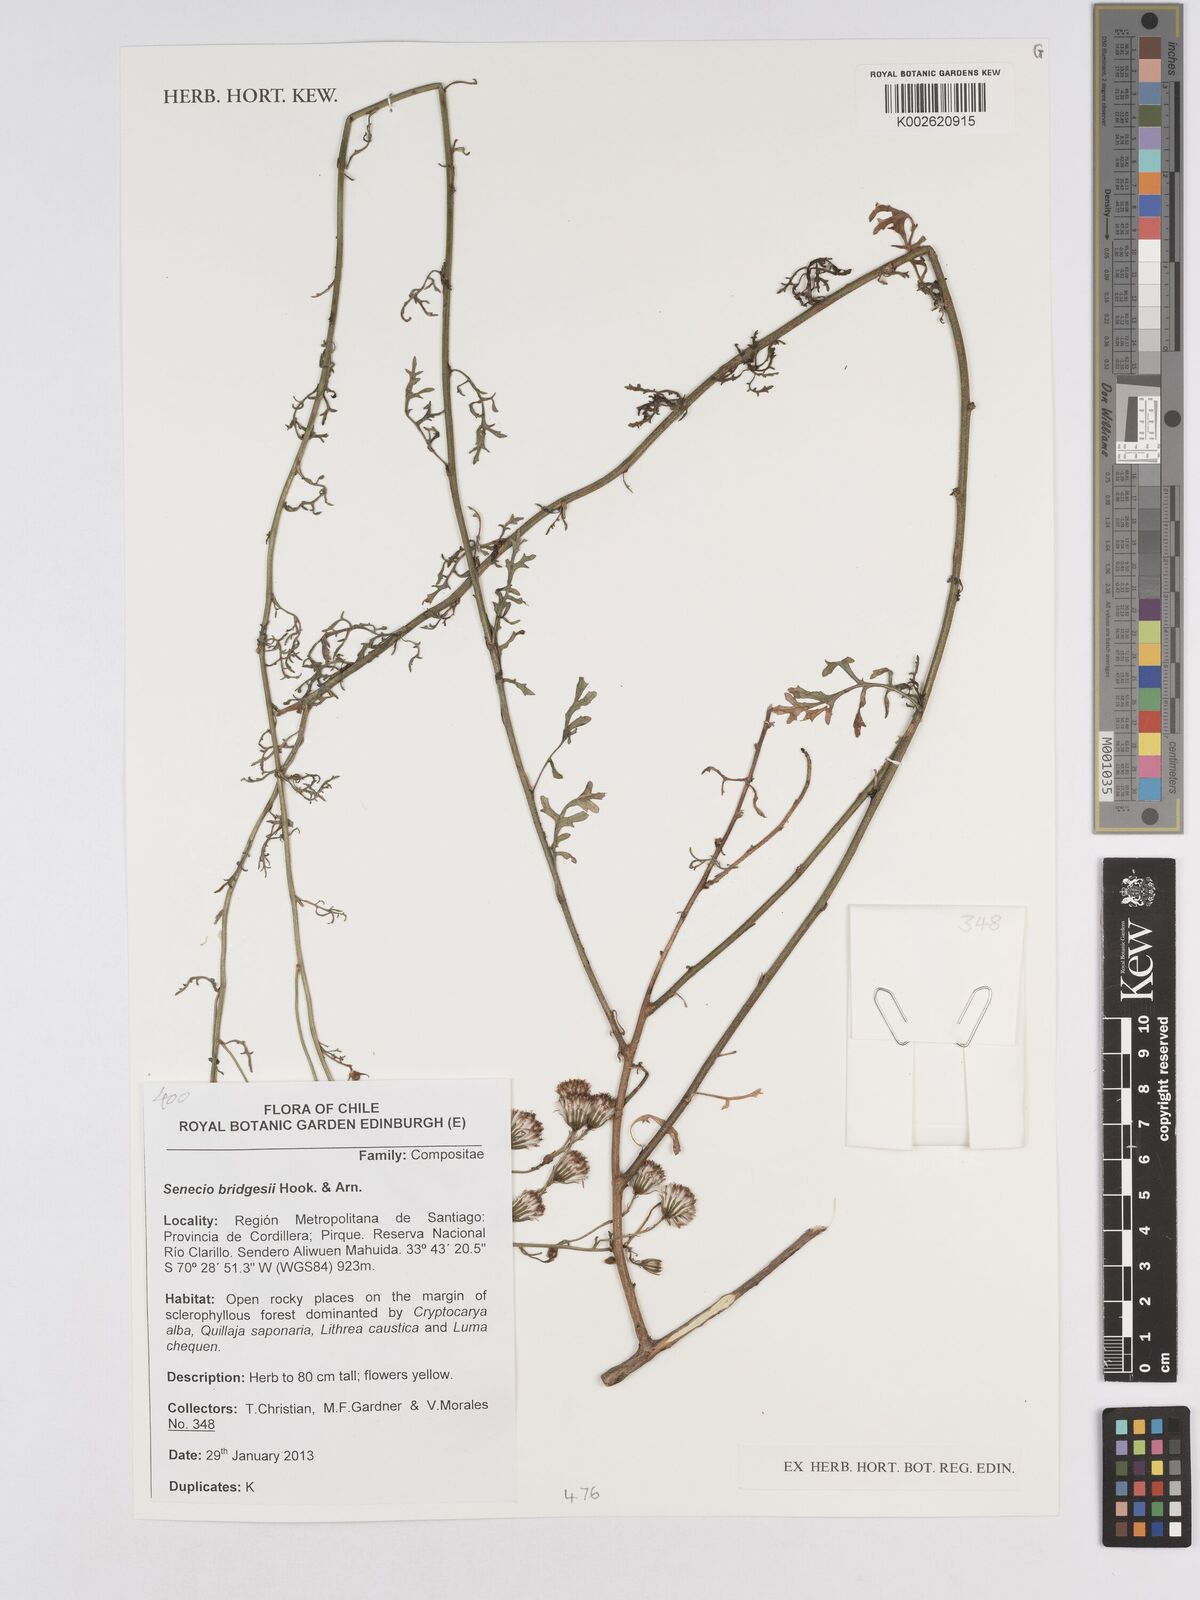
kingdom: Plantae
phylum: Tracheophyta
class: Magnoliopsida
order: Asterales
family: Asteraceae
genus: Senecio
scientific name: Senecio bridgesii
